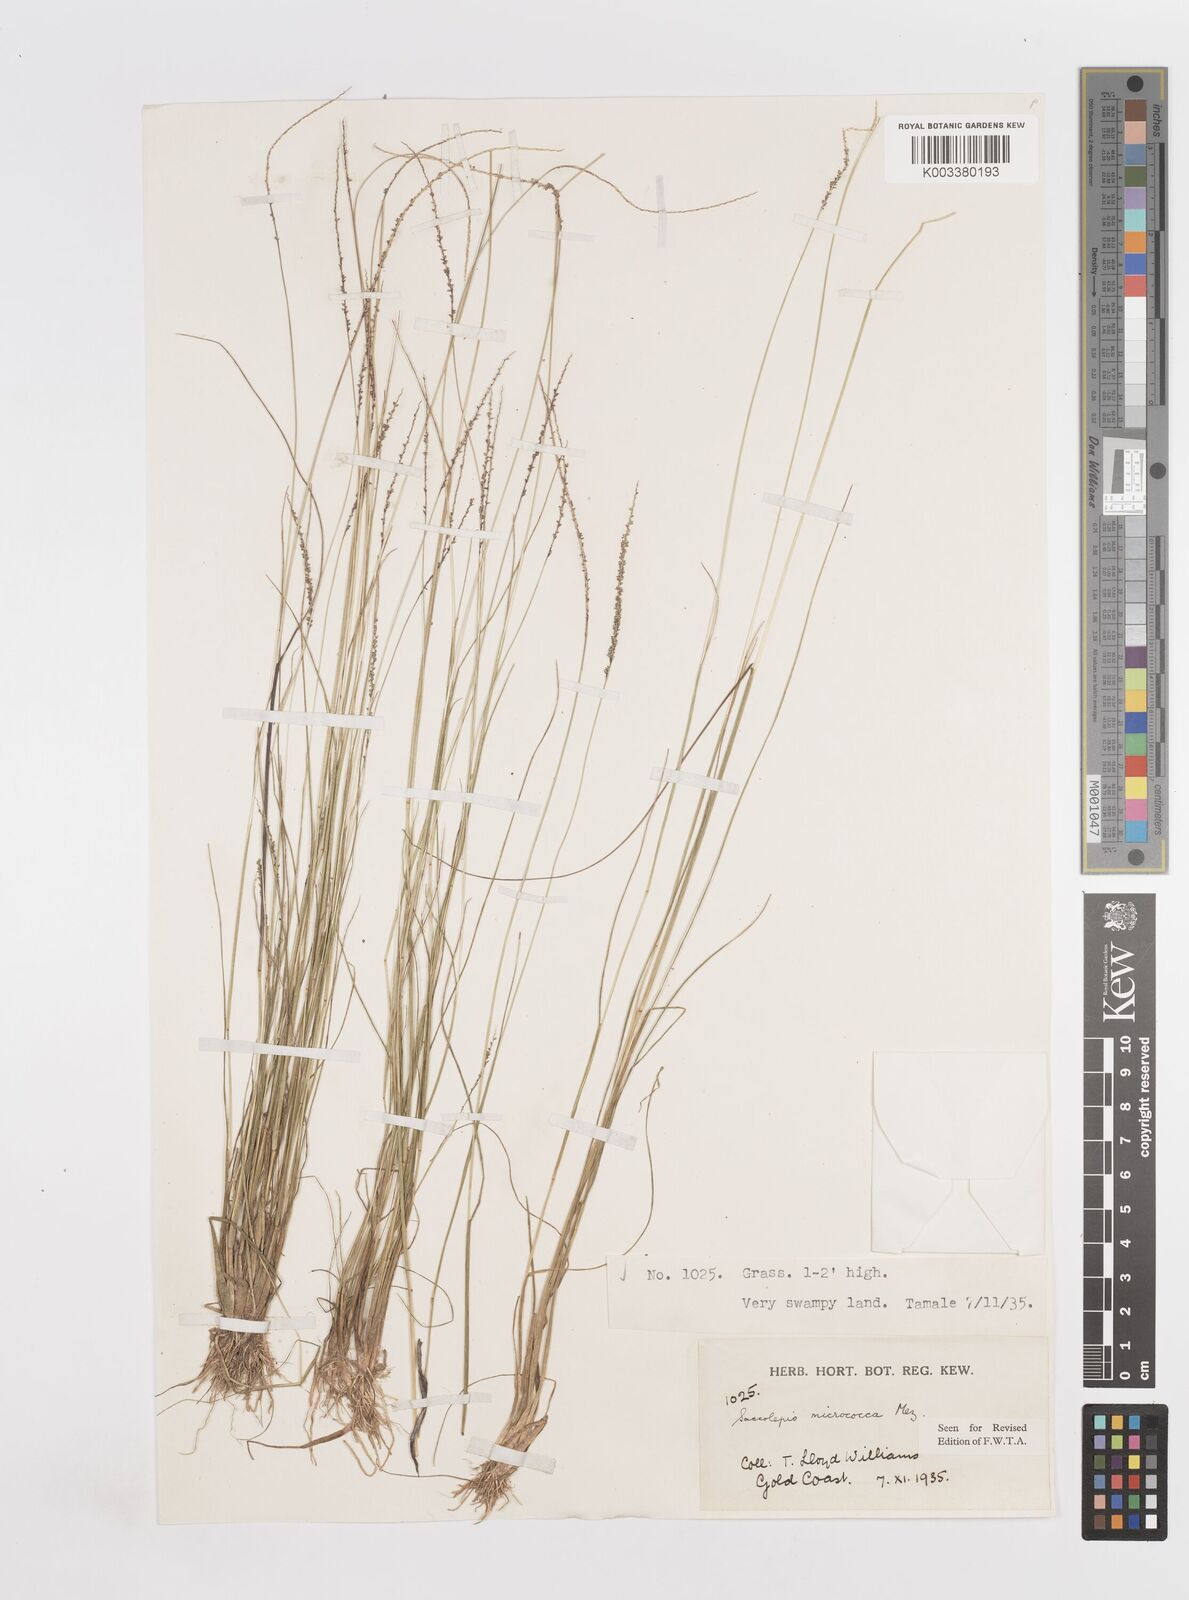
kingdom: Plantae
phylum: Tracheophyta
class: Liliopsida
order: Poales
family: Poaceae
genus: Sacciolepis
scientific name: Sacciolepis micrococca
